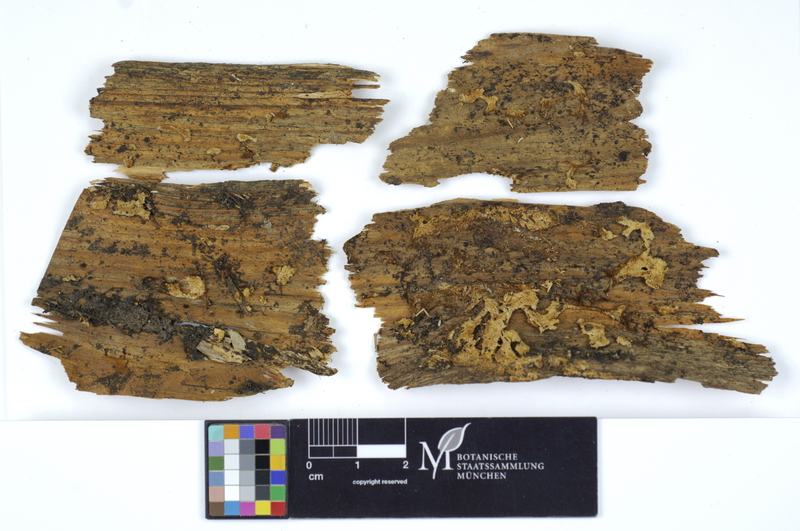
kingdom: Fungi
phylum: Ascomycota
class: Sordariomycetes
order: Hypocreales
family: Hypocreaceae
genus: Hypomyces
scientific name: Hypomyces
